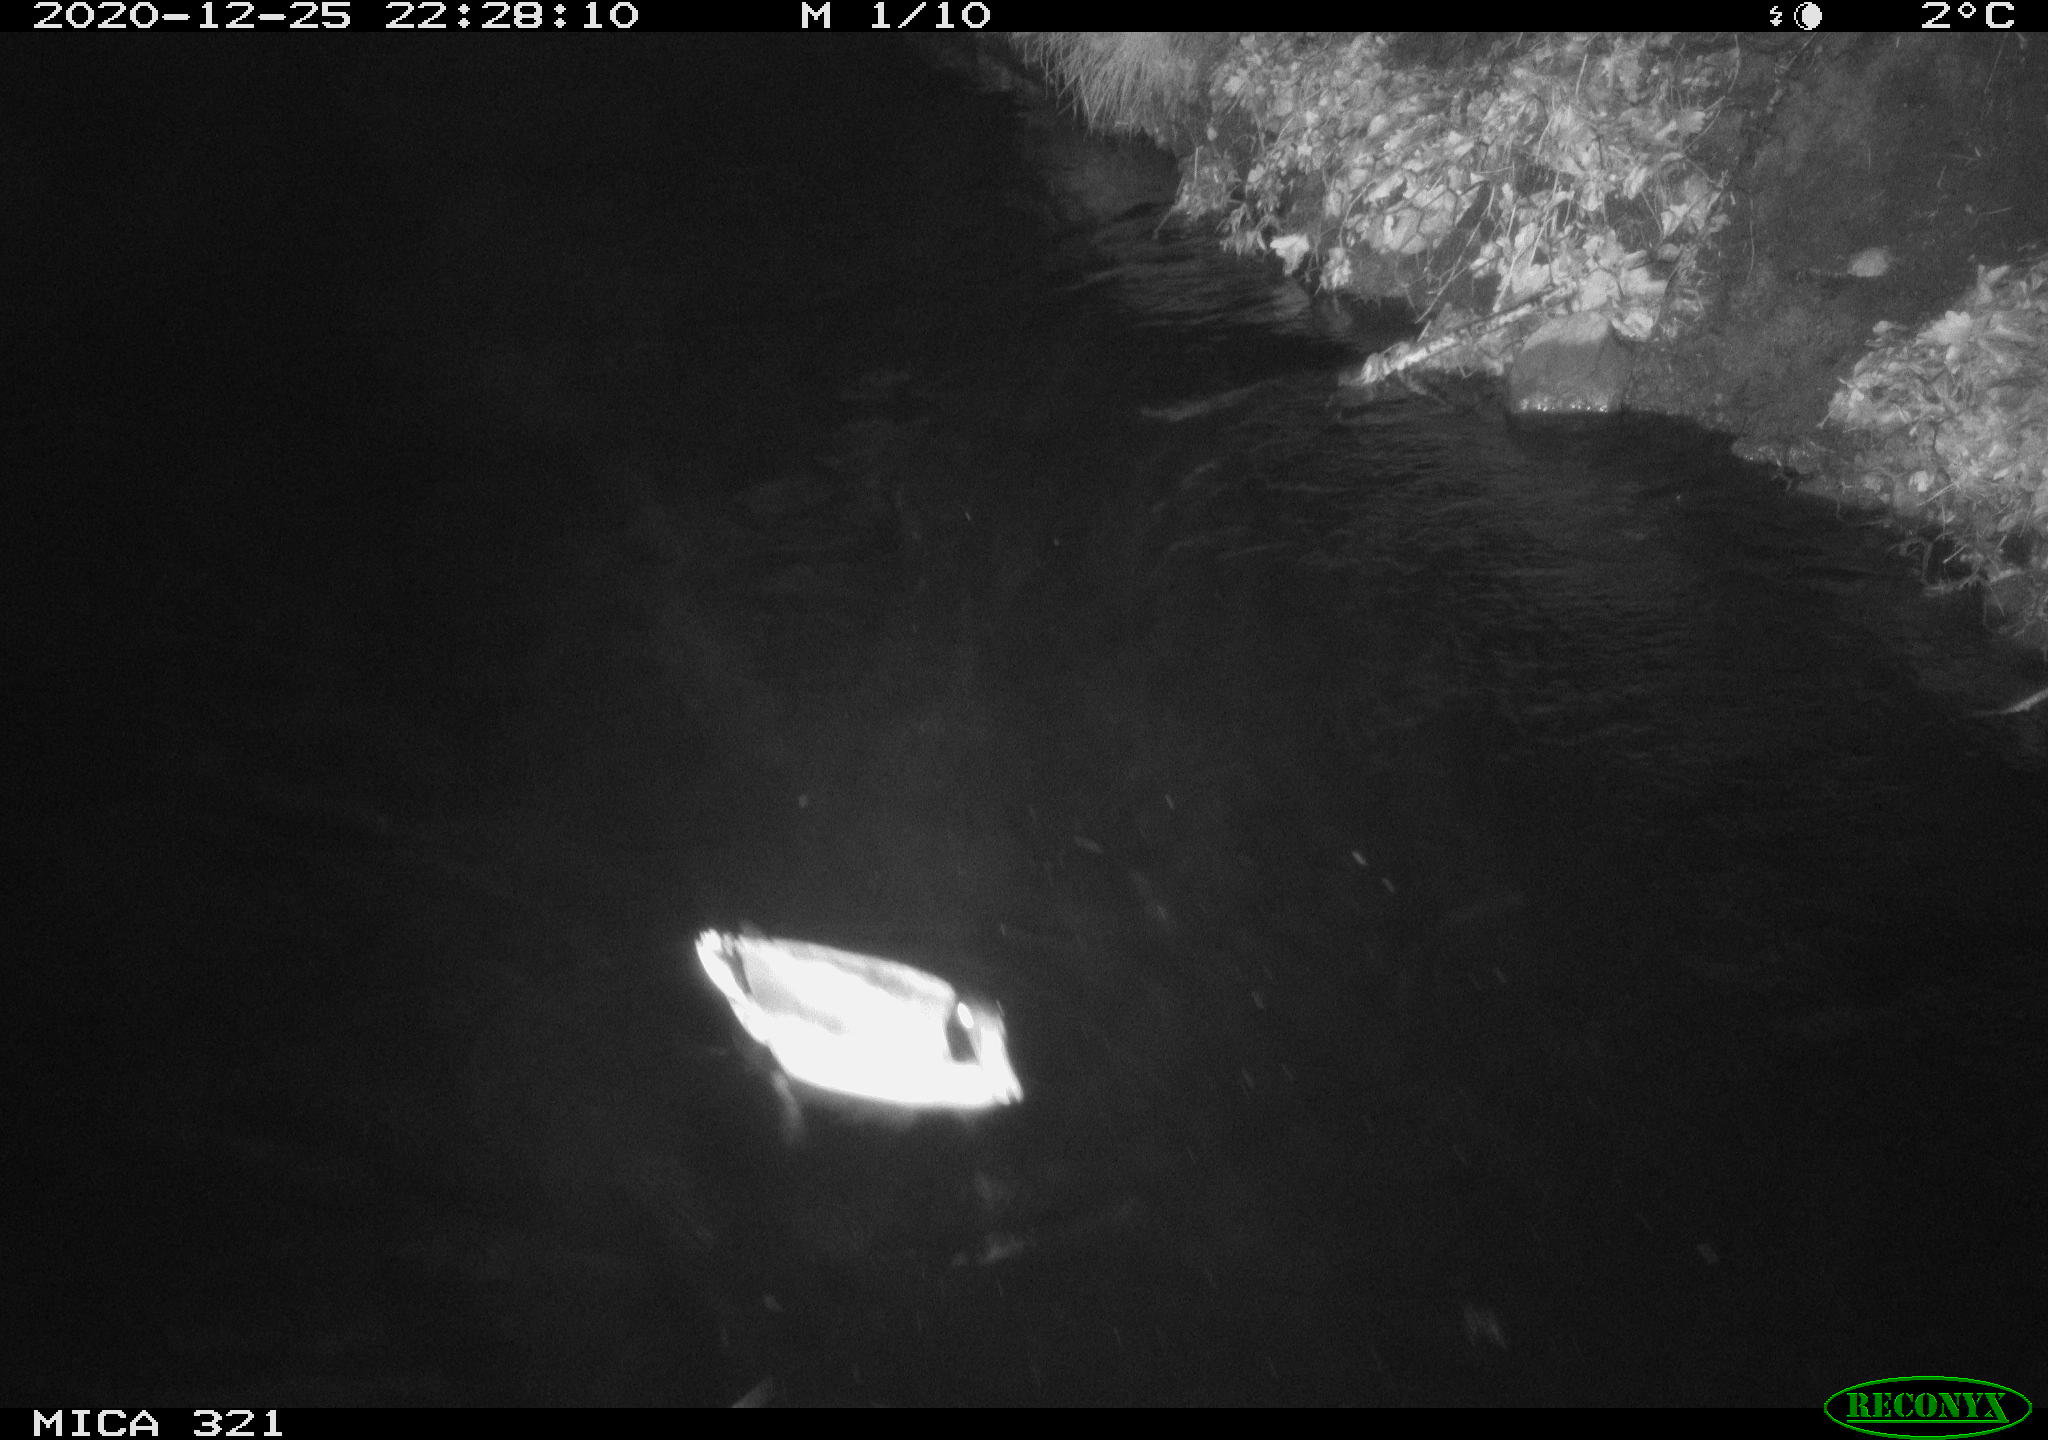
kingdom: Animalia
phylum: Chordata
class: Aves
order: Anseriformes
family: Anatidae
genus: Anas
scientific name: Anas platyrhynchos
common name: Mallard
